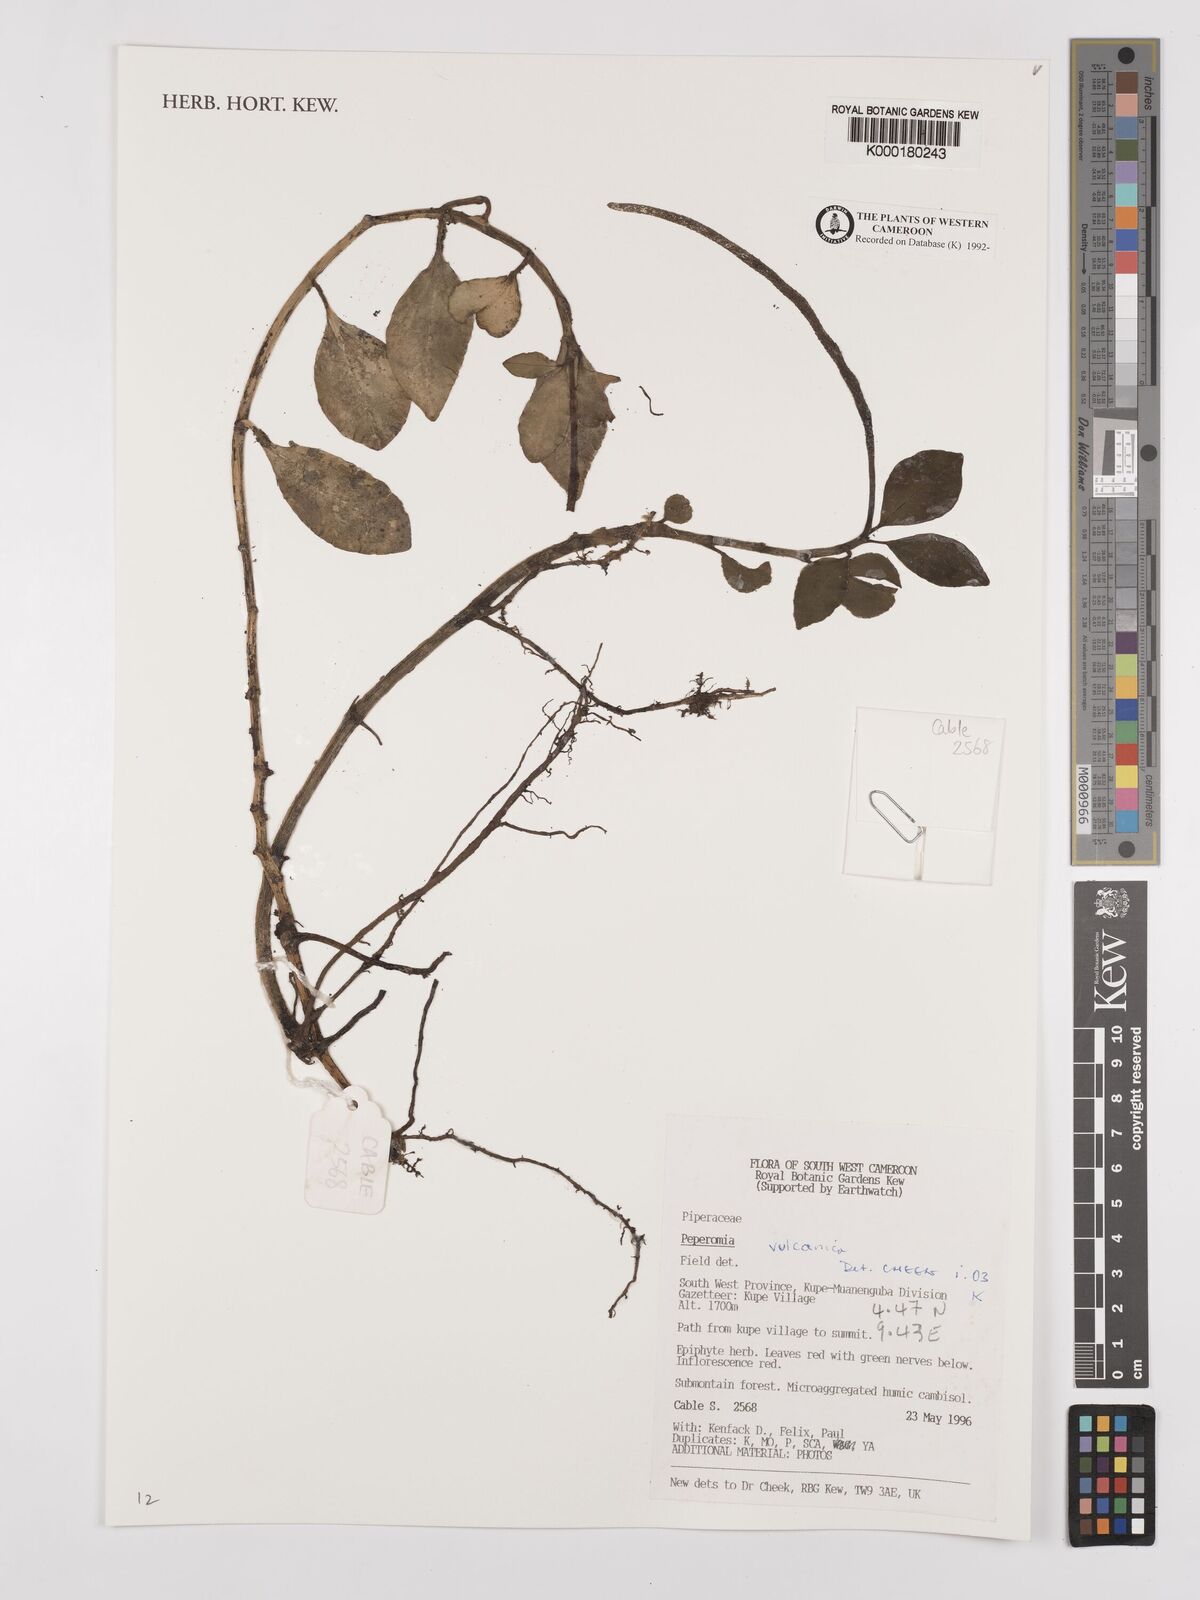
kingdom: Plantae
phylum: Tracheophyta
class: Magnoliopsida
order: Piperales
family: Piperaceae
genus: Peperomia
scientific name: Peperomia vulcanica
